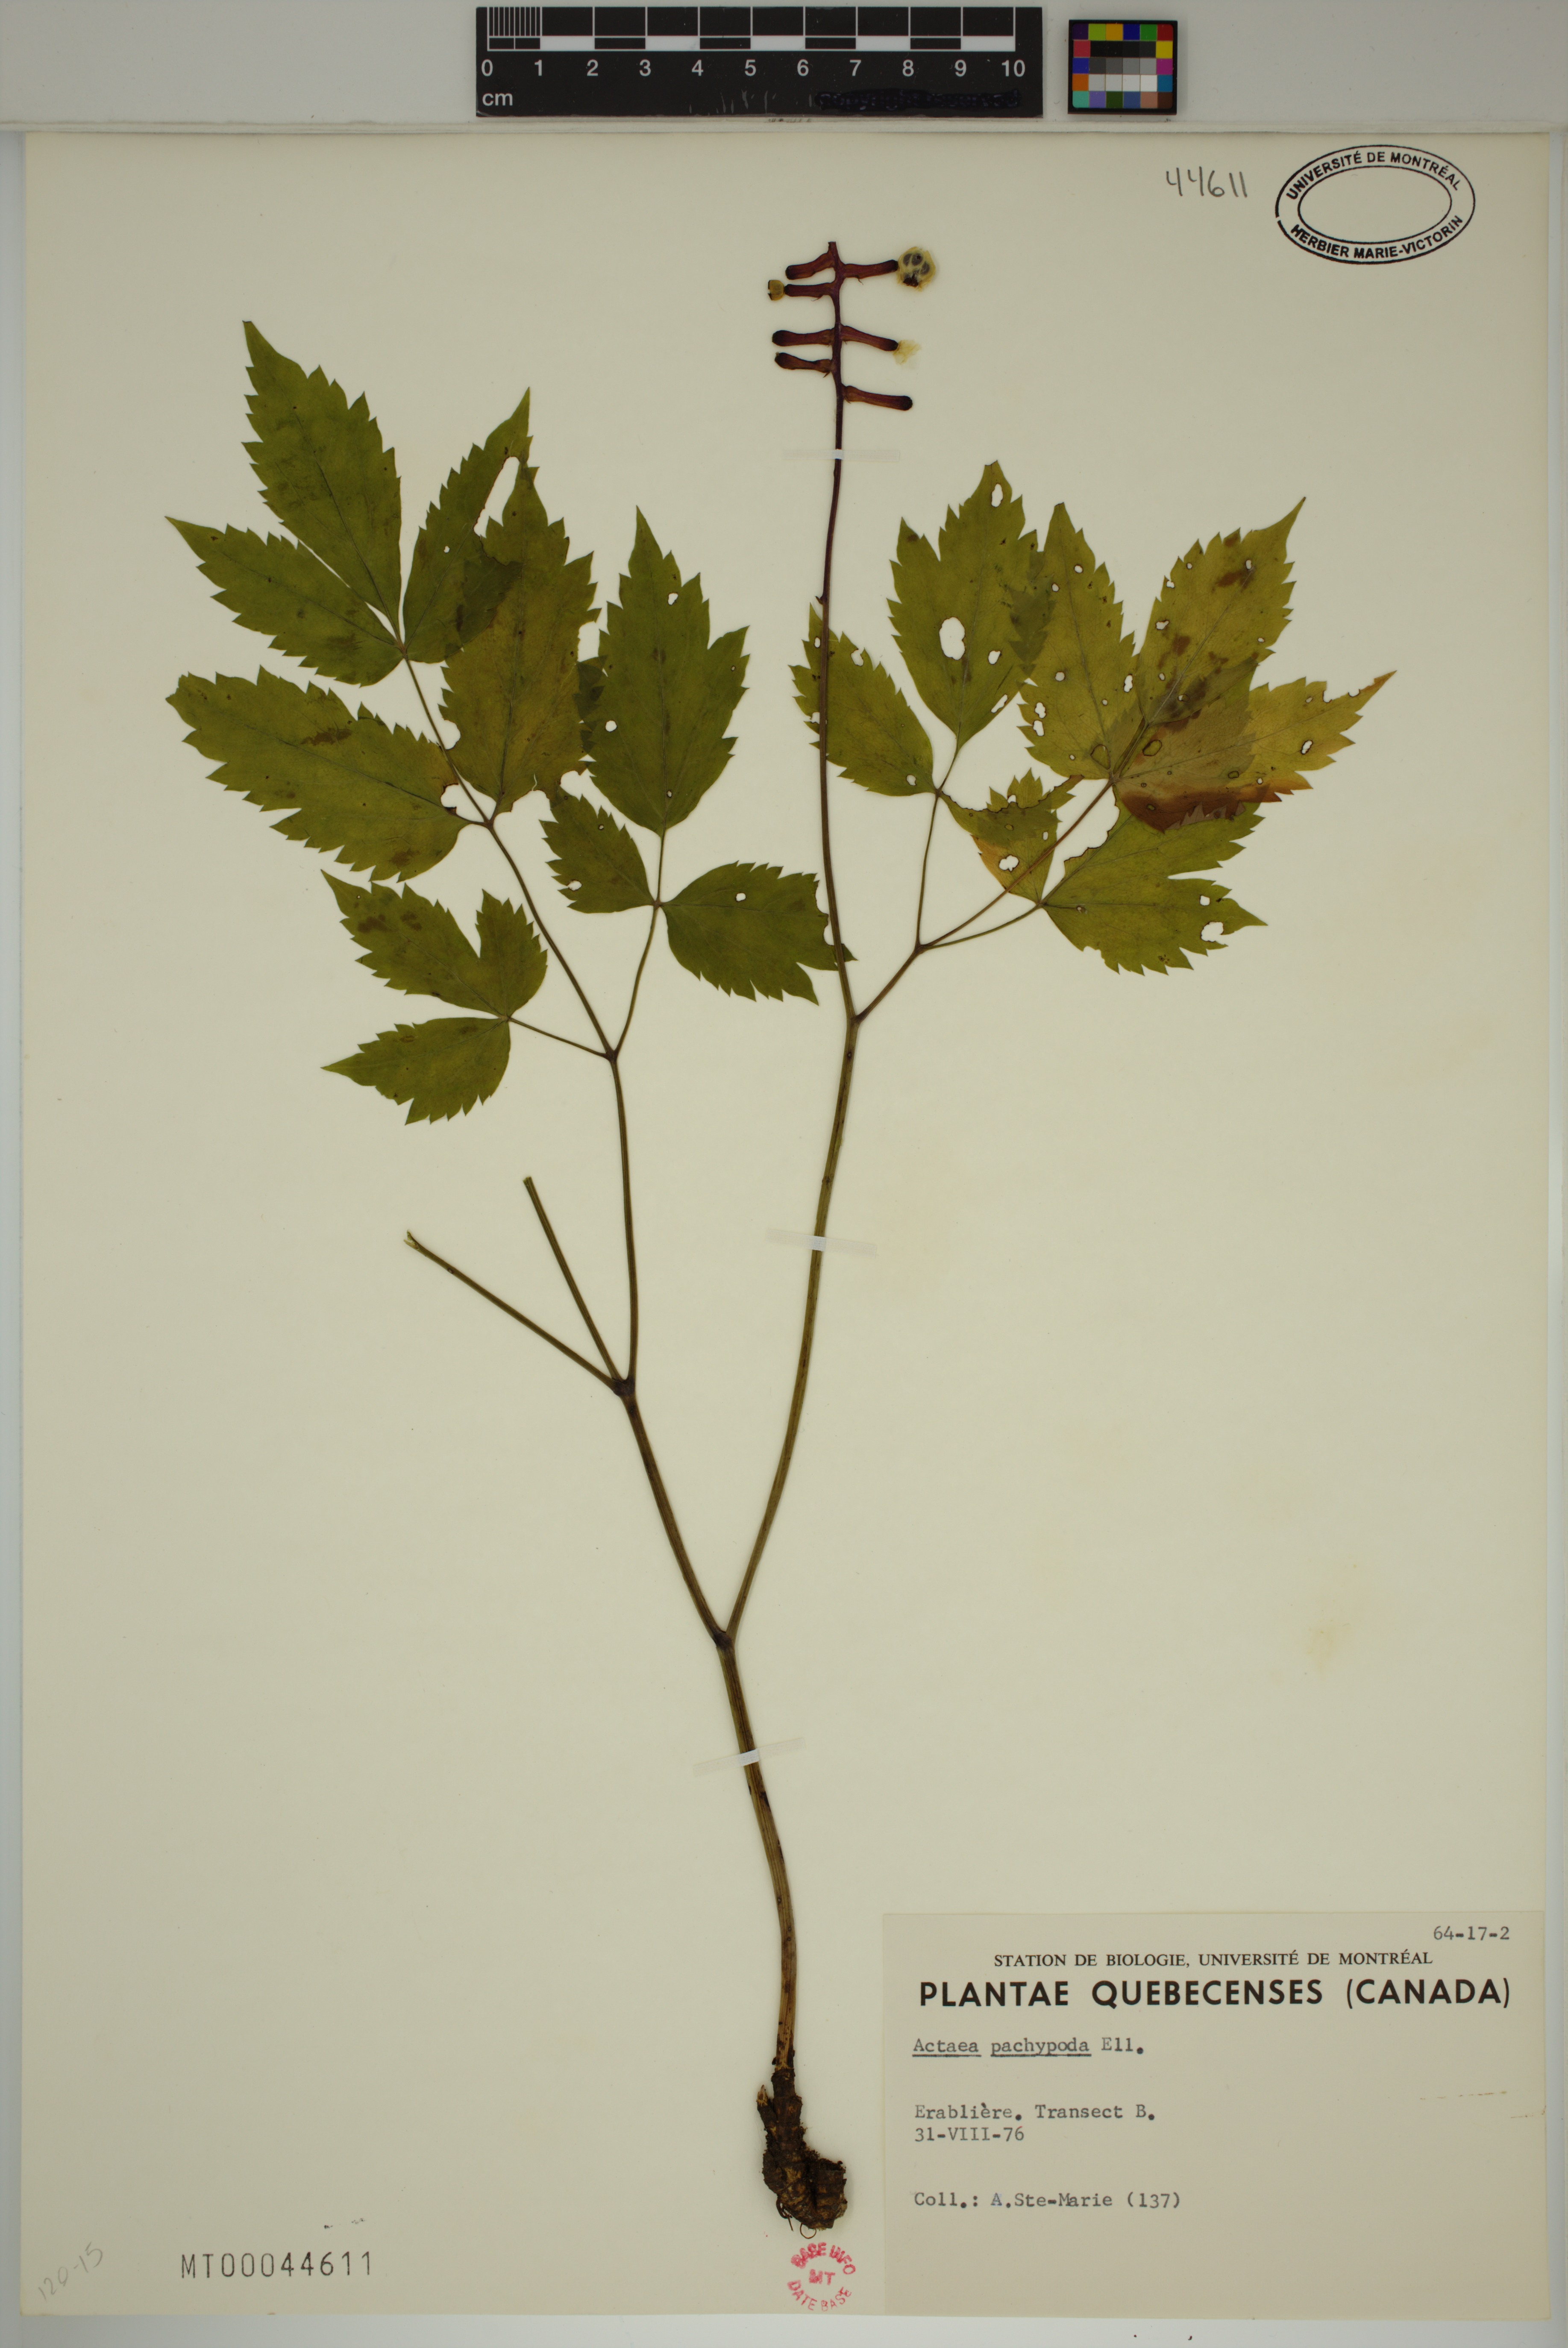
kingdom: Plantae
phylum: Tracheophyta
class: Magnoliopsida
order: Ranunculales
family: Ranunculaceae
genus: Actaea
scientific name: Actaea pachypoda
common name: Doll's-eyes
